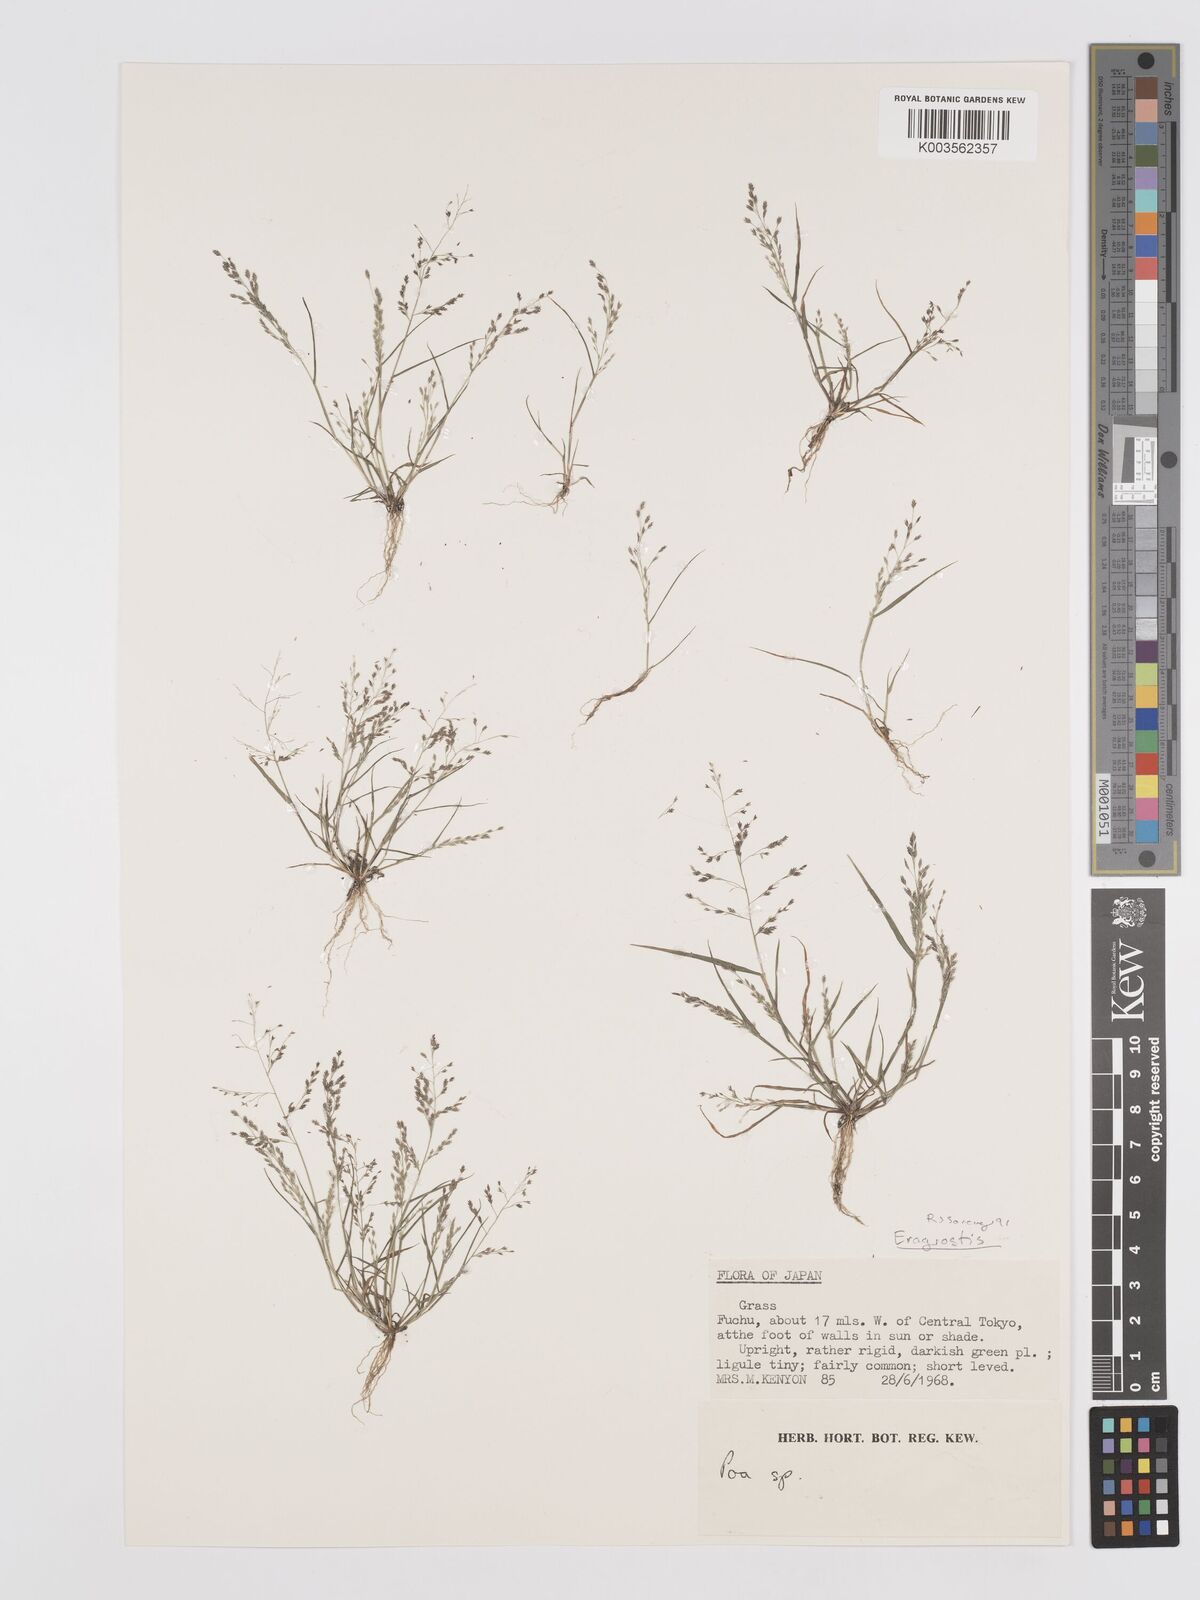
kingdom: Plantae
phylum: Tracheophyta
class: Liliopsida
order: Poales
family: Poaceae
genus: Eragrostis
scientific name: Eragrostis
